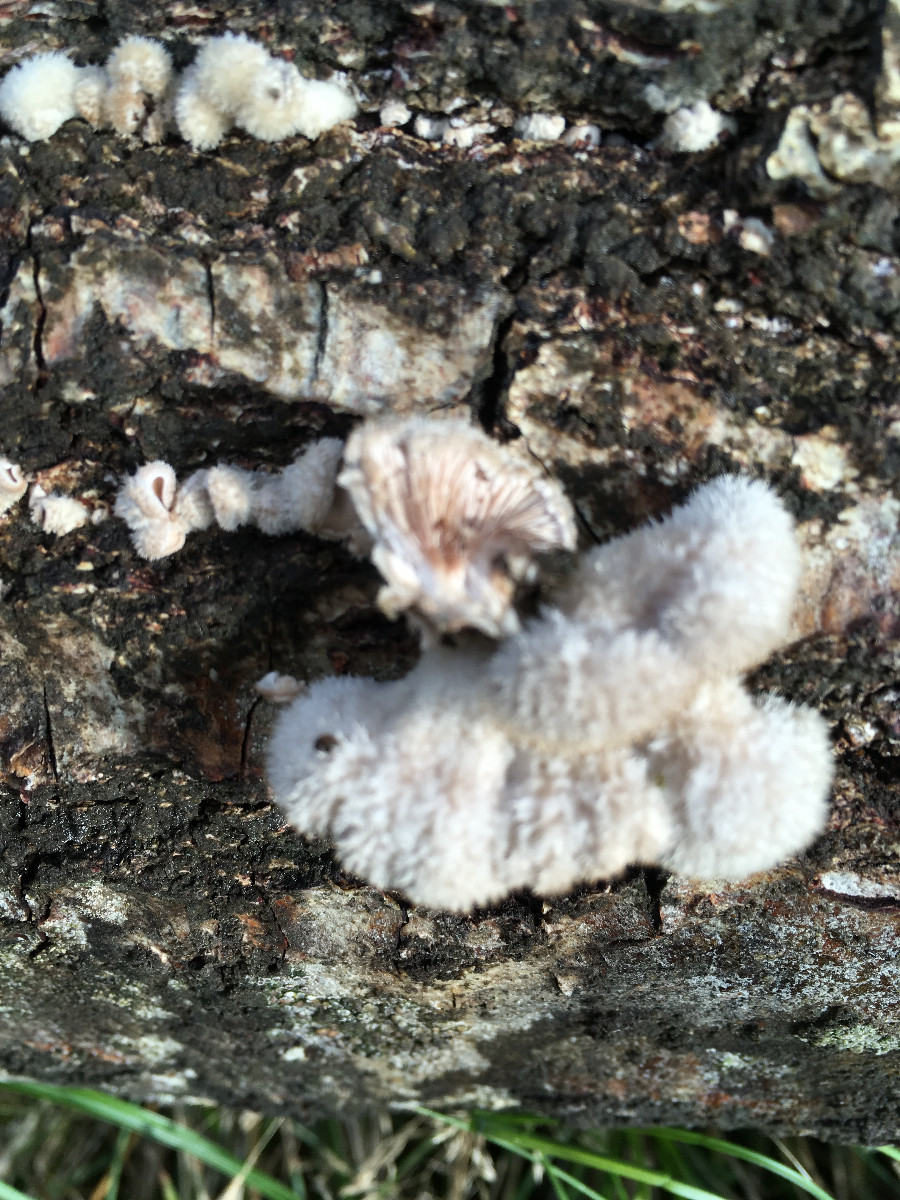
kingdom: Fungi
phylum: Basidiomycota
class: Agaricomycetes
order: Agaricales
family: Schizophyllaceae
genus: Schizophyllum
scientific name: Schizophyllum commune
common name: kløvblad
